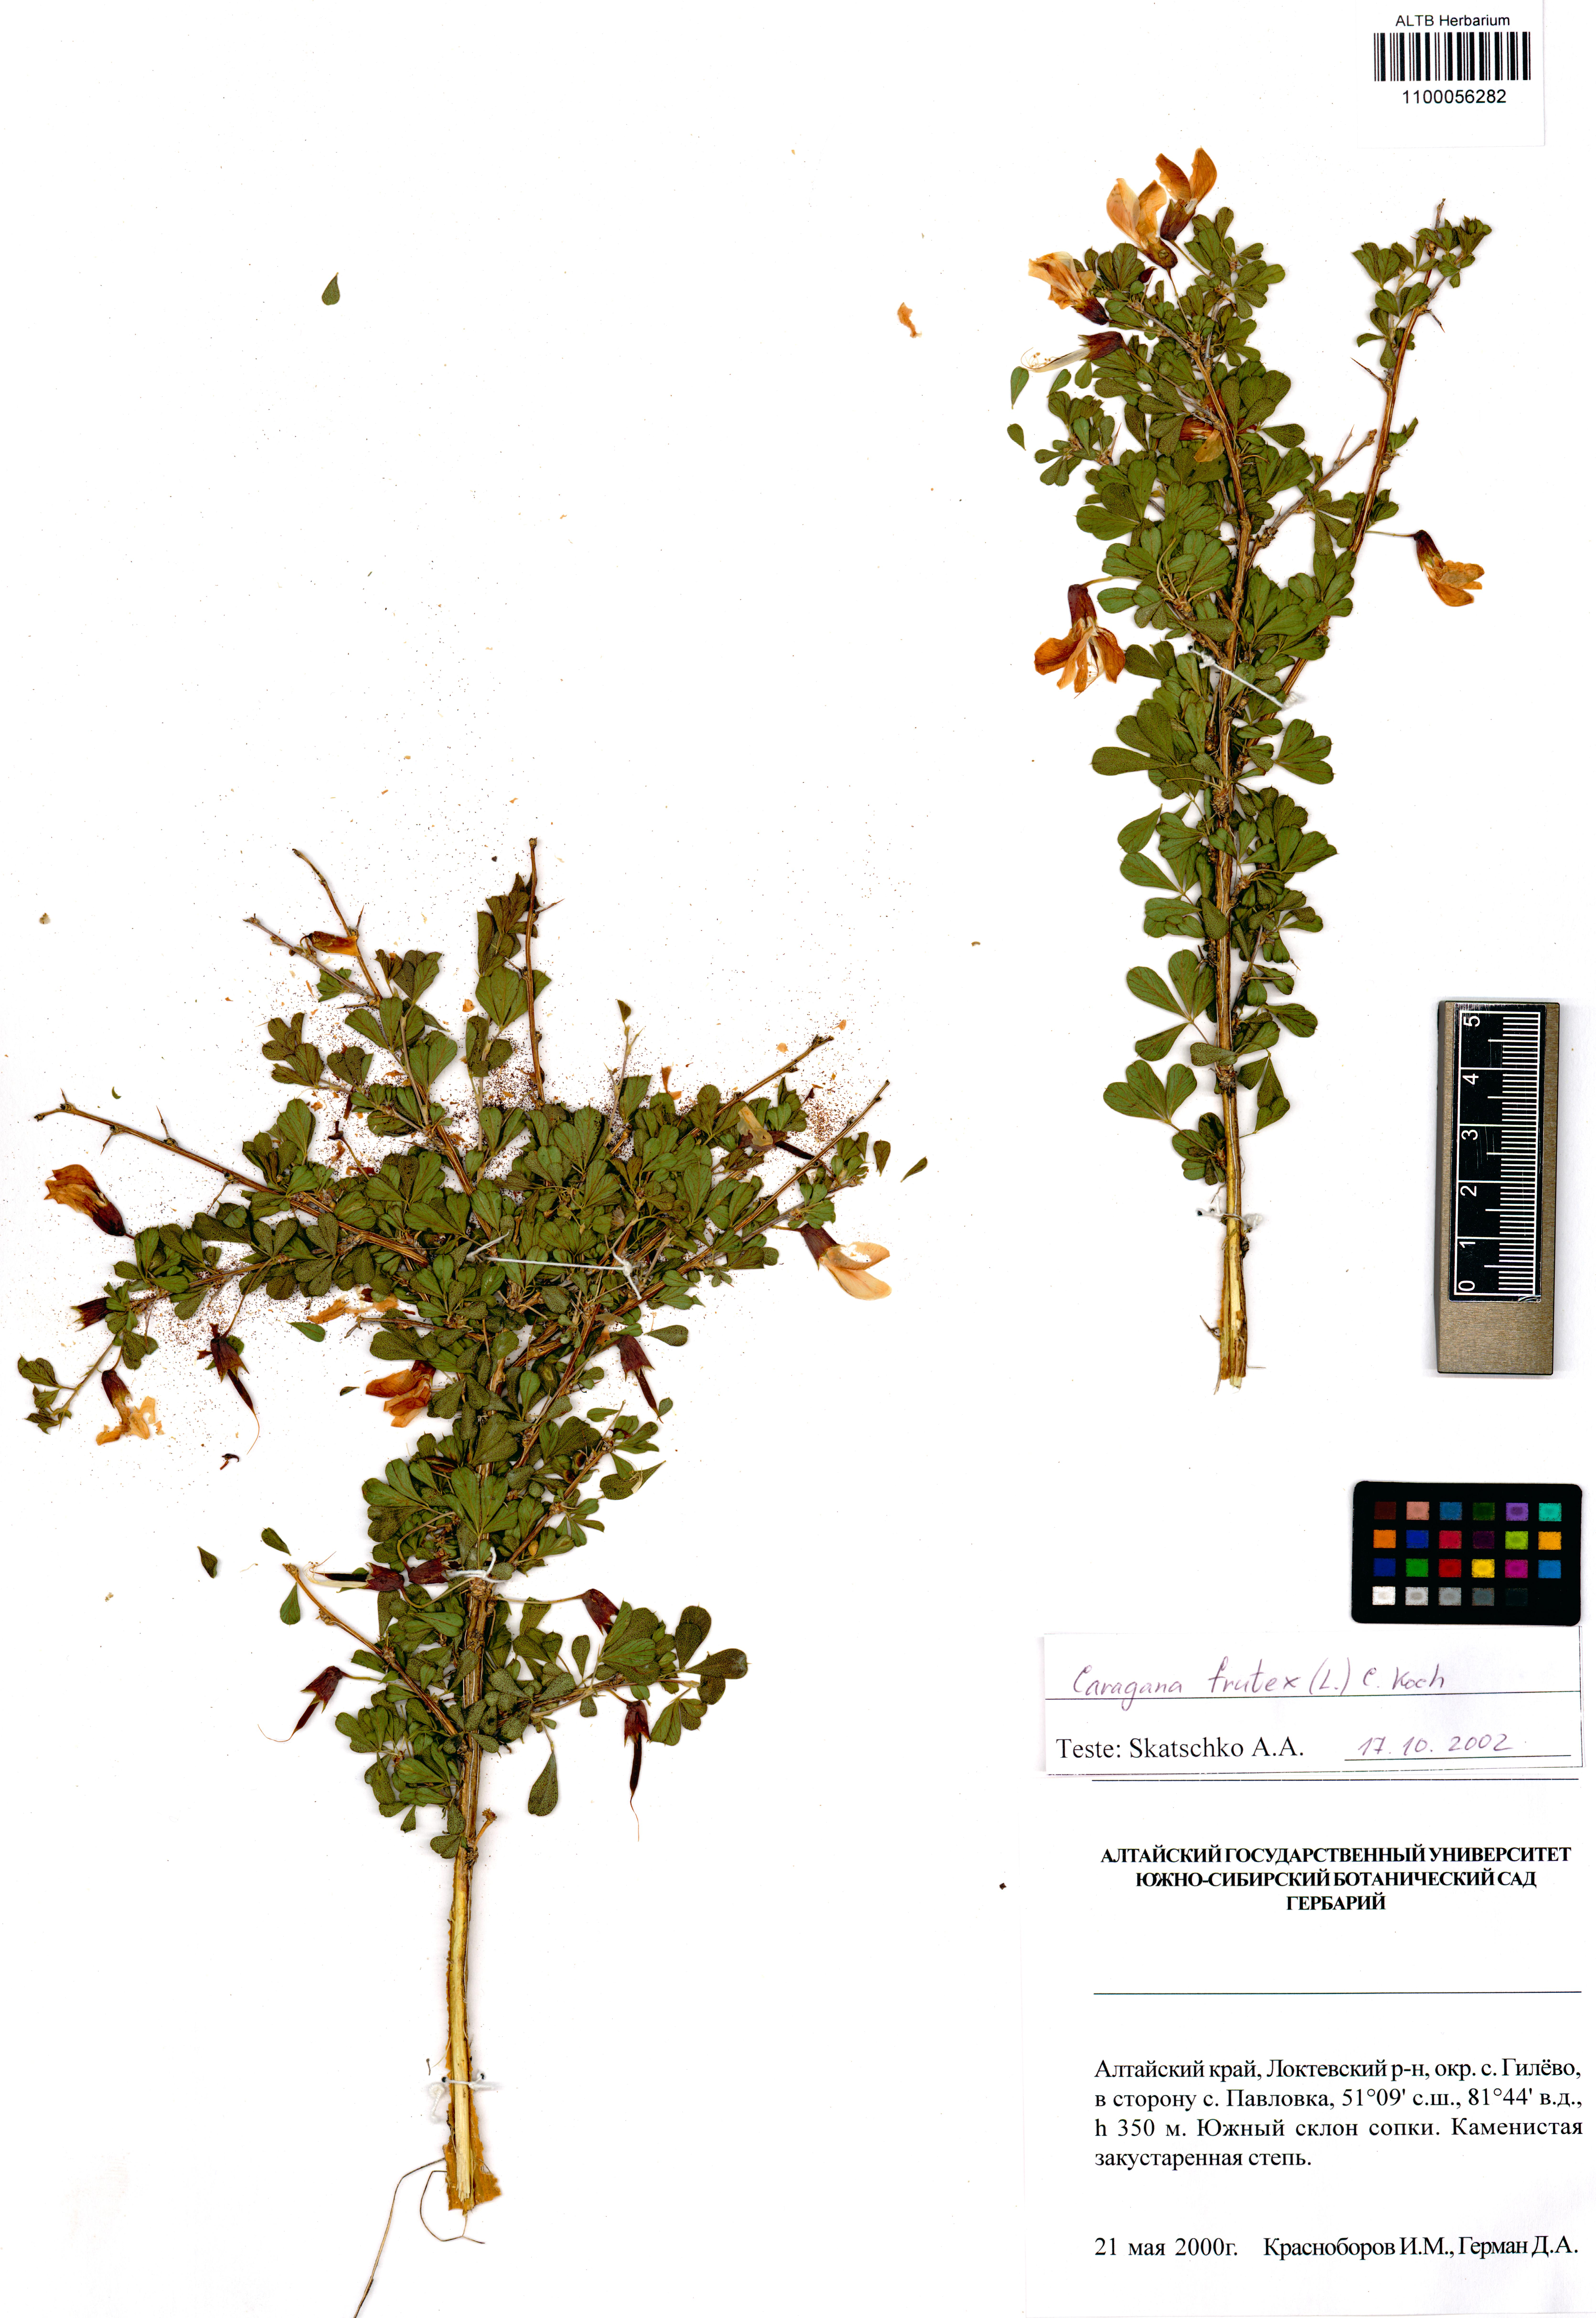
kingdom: Plantae
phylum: Tracheophyta
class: Magnoliopsida
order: Fabales
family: Fabaceae
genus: Caragana
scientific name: Caragana frutex
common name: Russian peashrub
